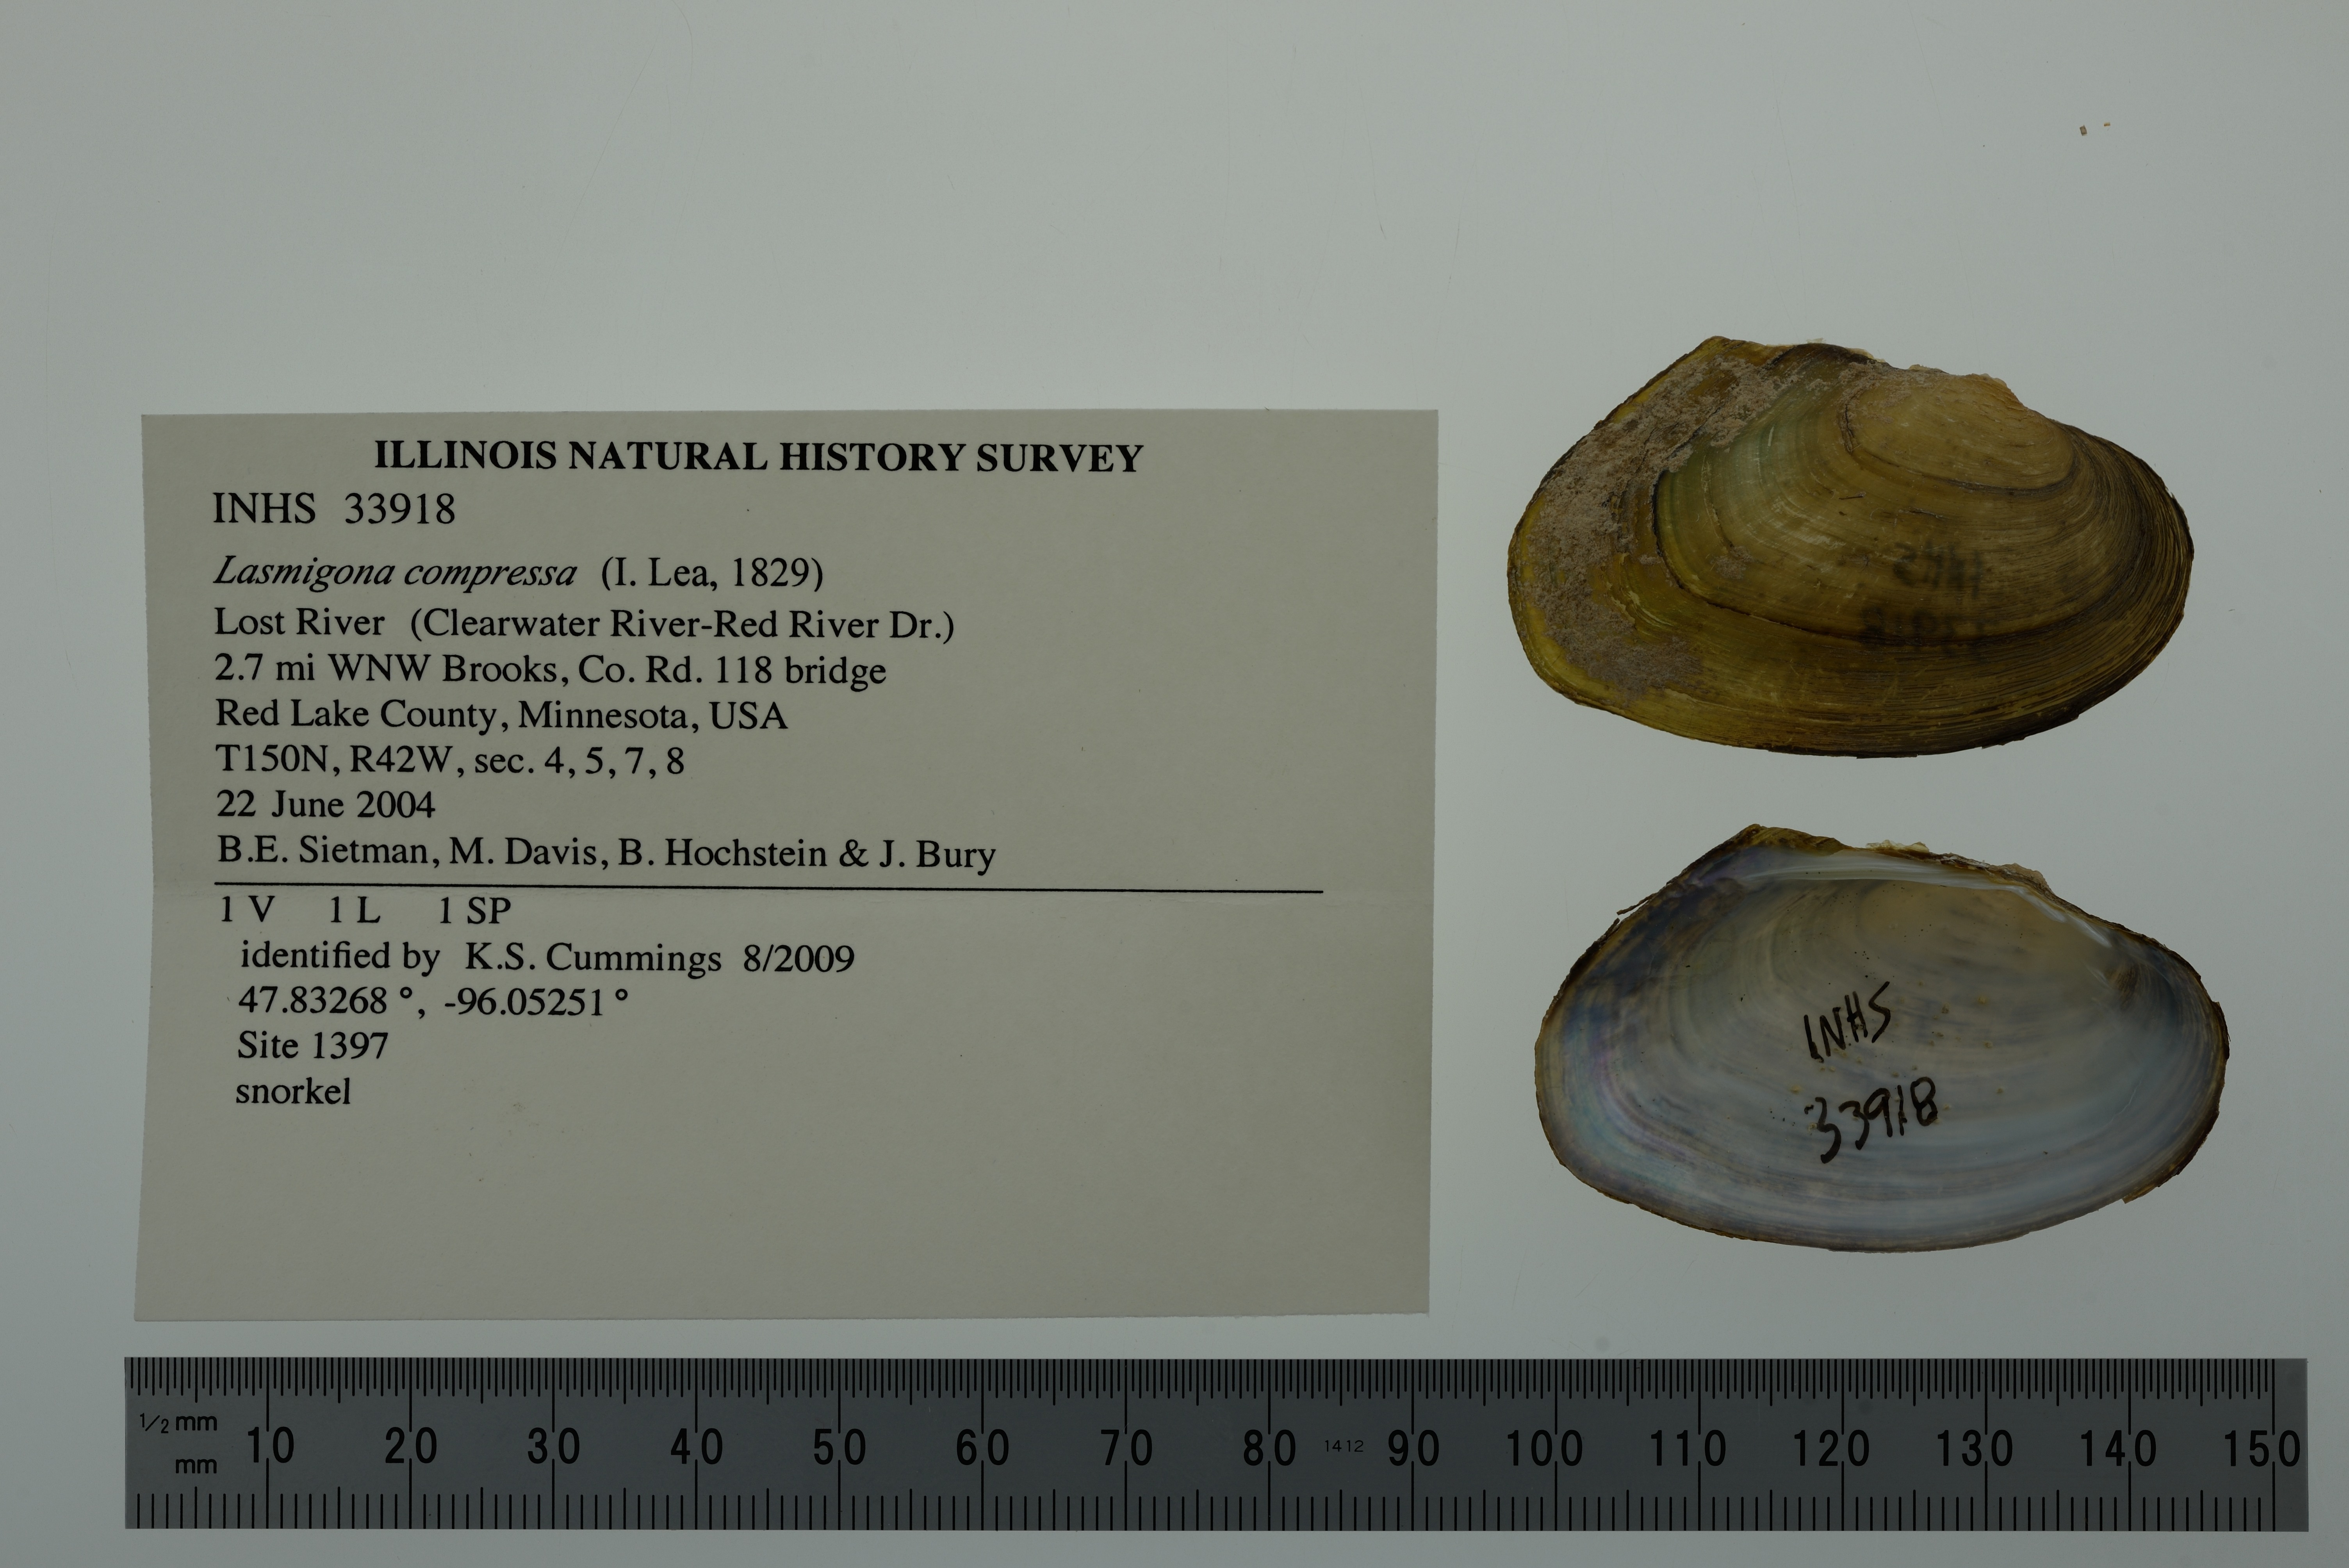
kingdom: Animalia
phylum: Mollusca
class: Bivalvia
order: Unionida
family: Unionidae
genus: Lasmigona
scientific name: Lasmigona compressa
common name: Creek heelsplitter
